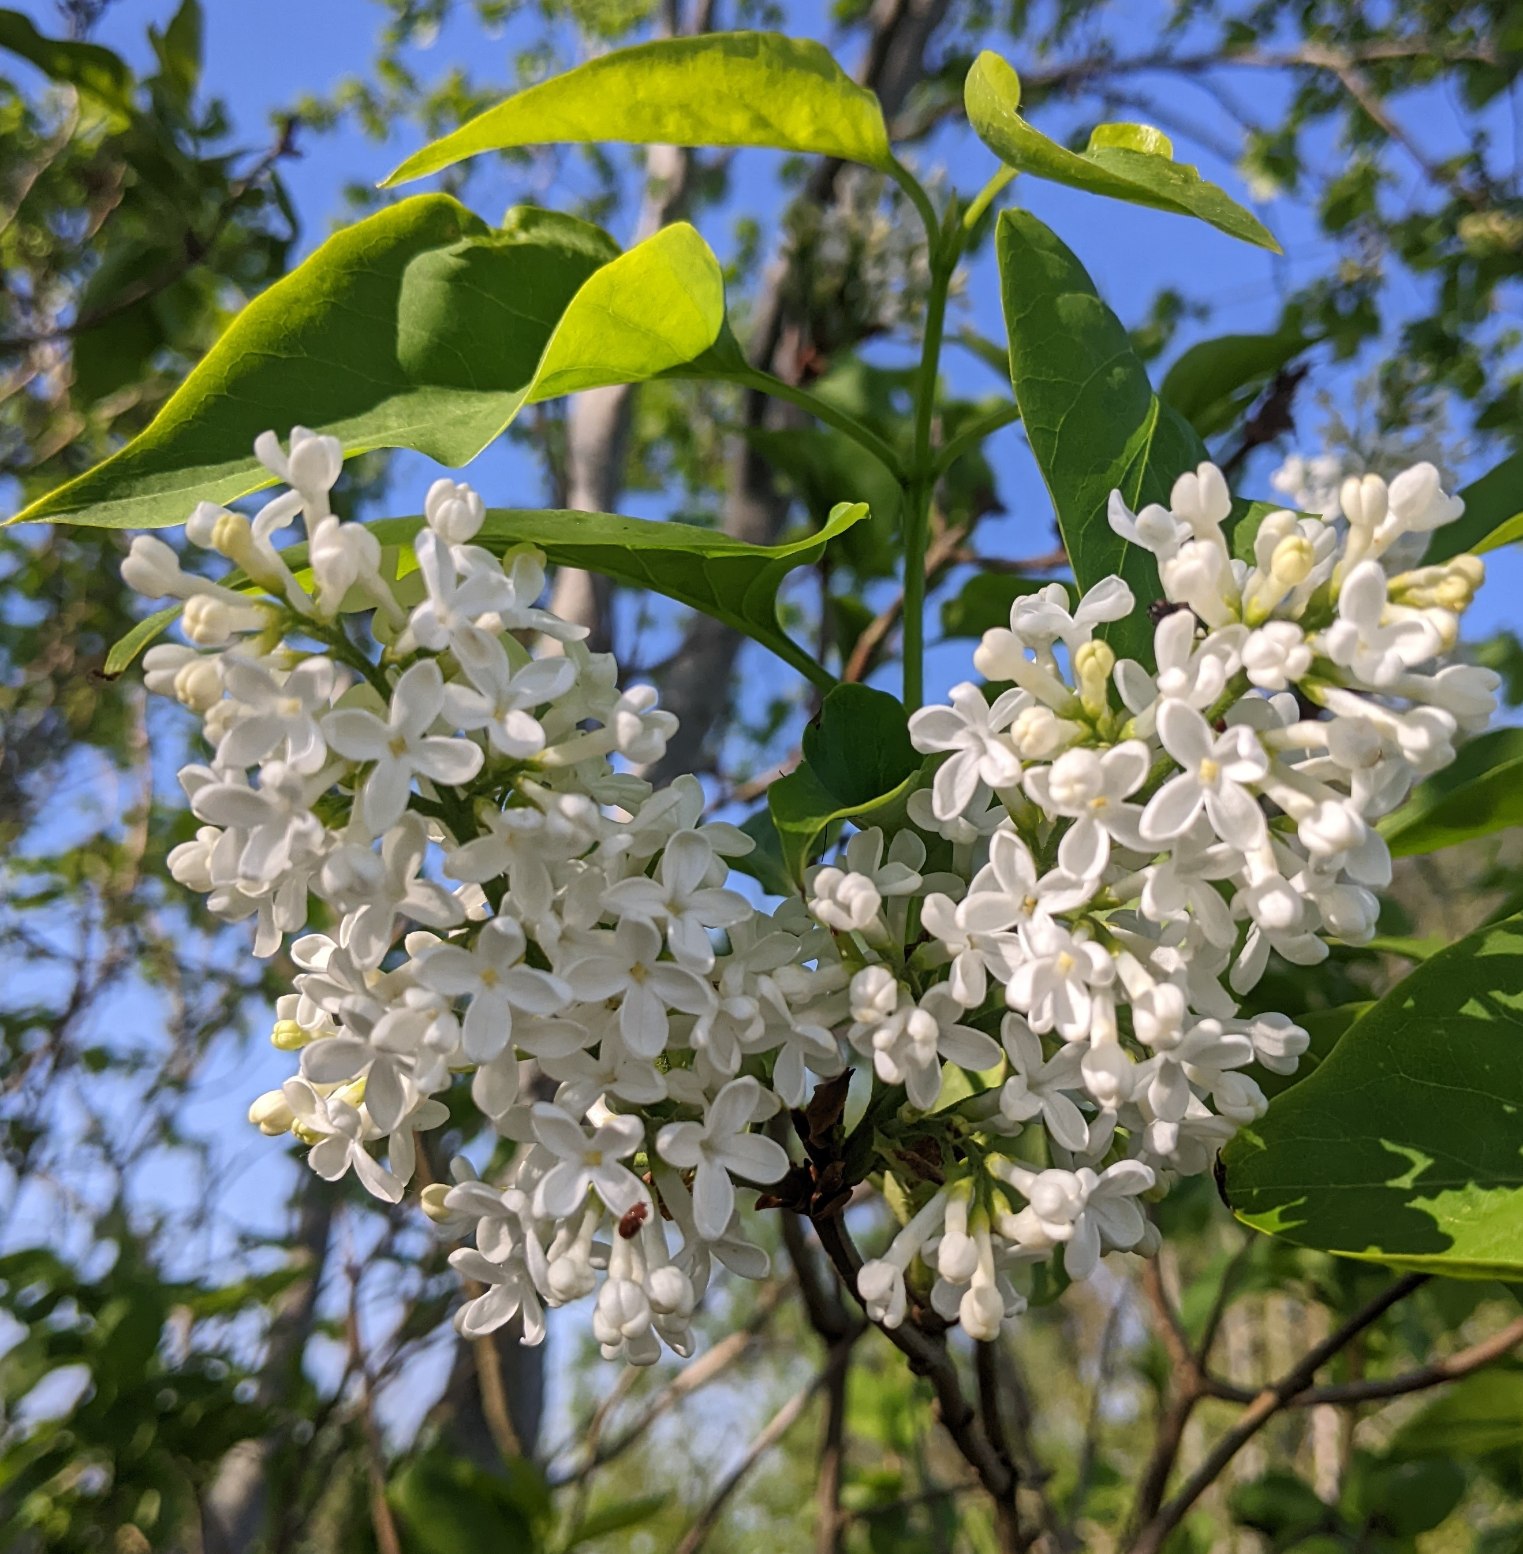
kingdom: Plantae
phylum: Tracheophyta
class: Magnoliopsida
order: Lamiales
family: Oleaceae
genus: Syringa
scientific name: Syringa vulgaris
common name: Syren
